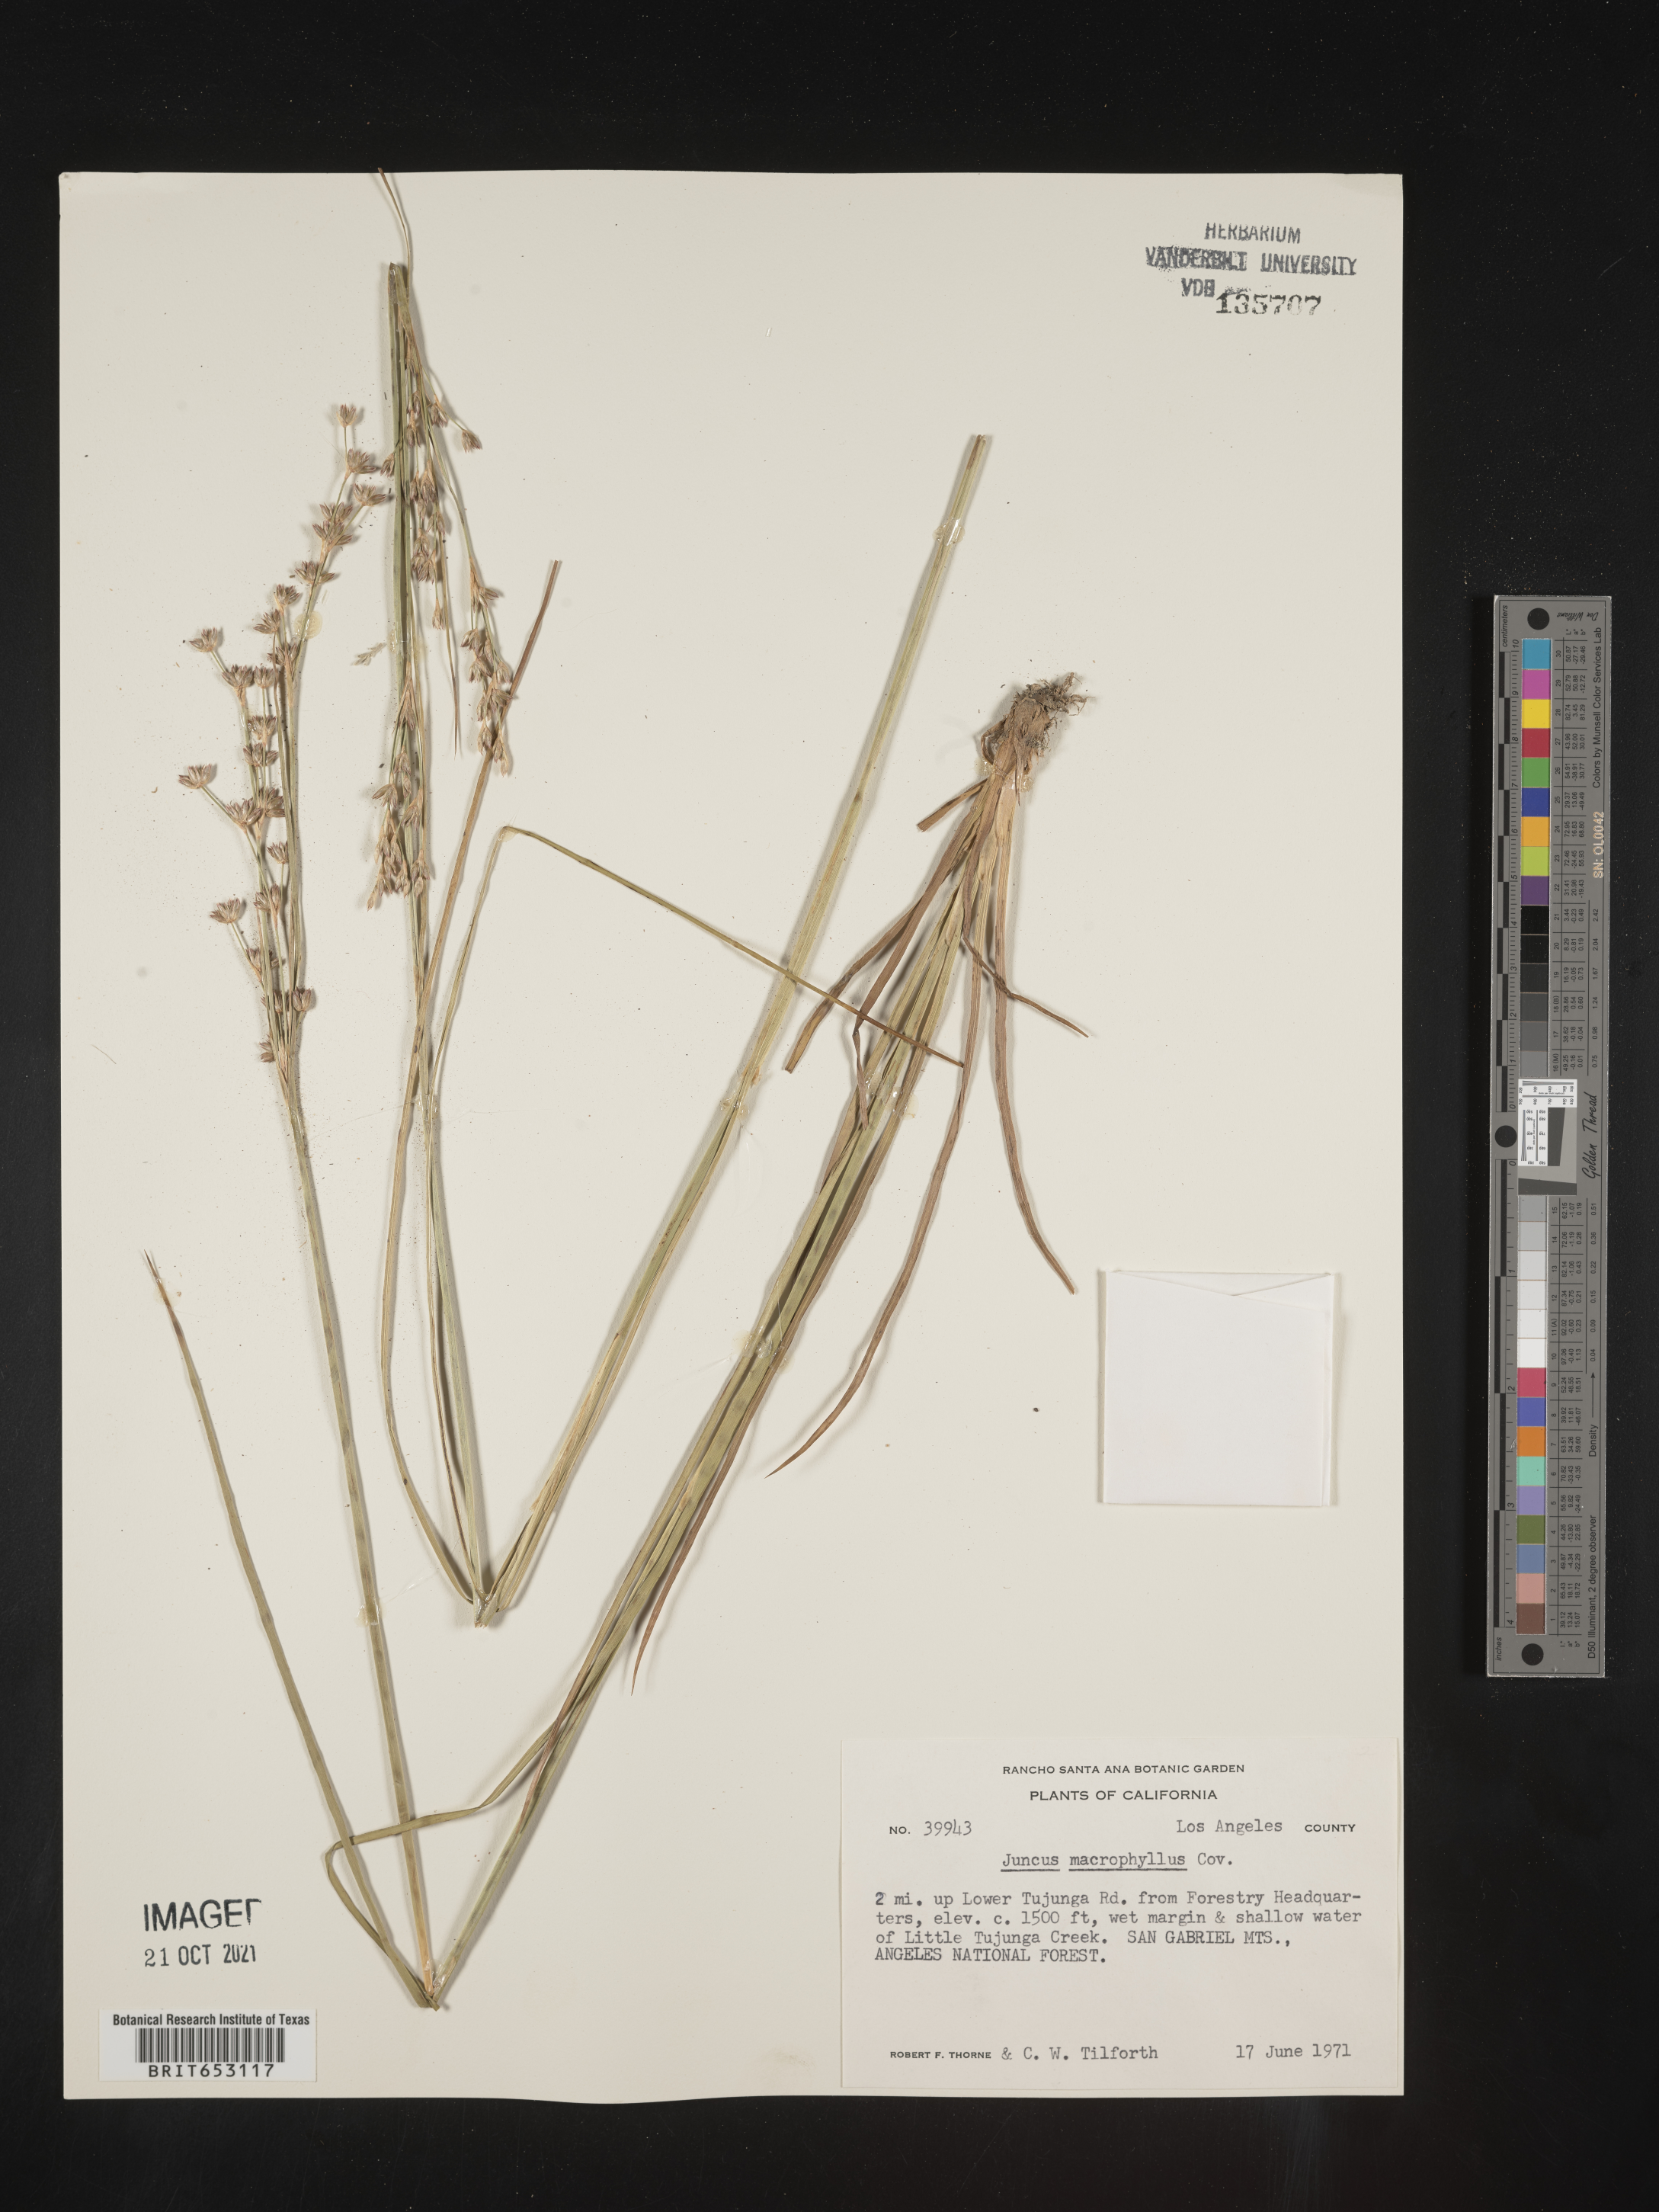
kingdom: Plantae
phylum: Tracheophyta
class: Liliopsida
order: Poales
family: Juncaceae
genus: Juncus
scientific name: Juncus macrophyllus
